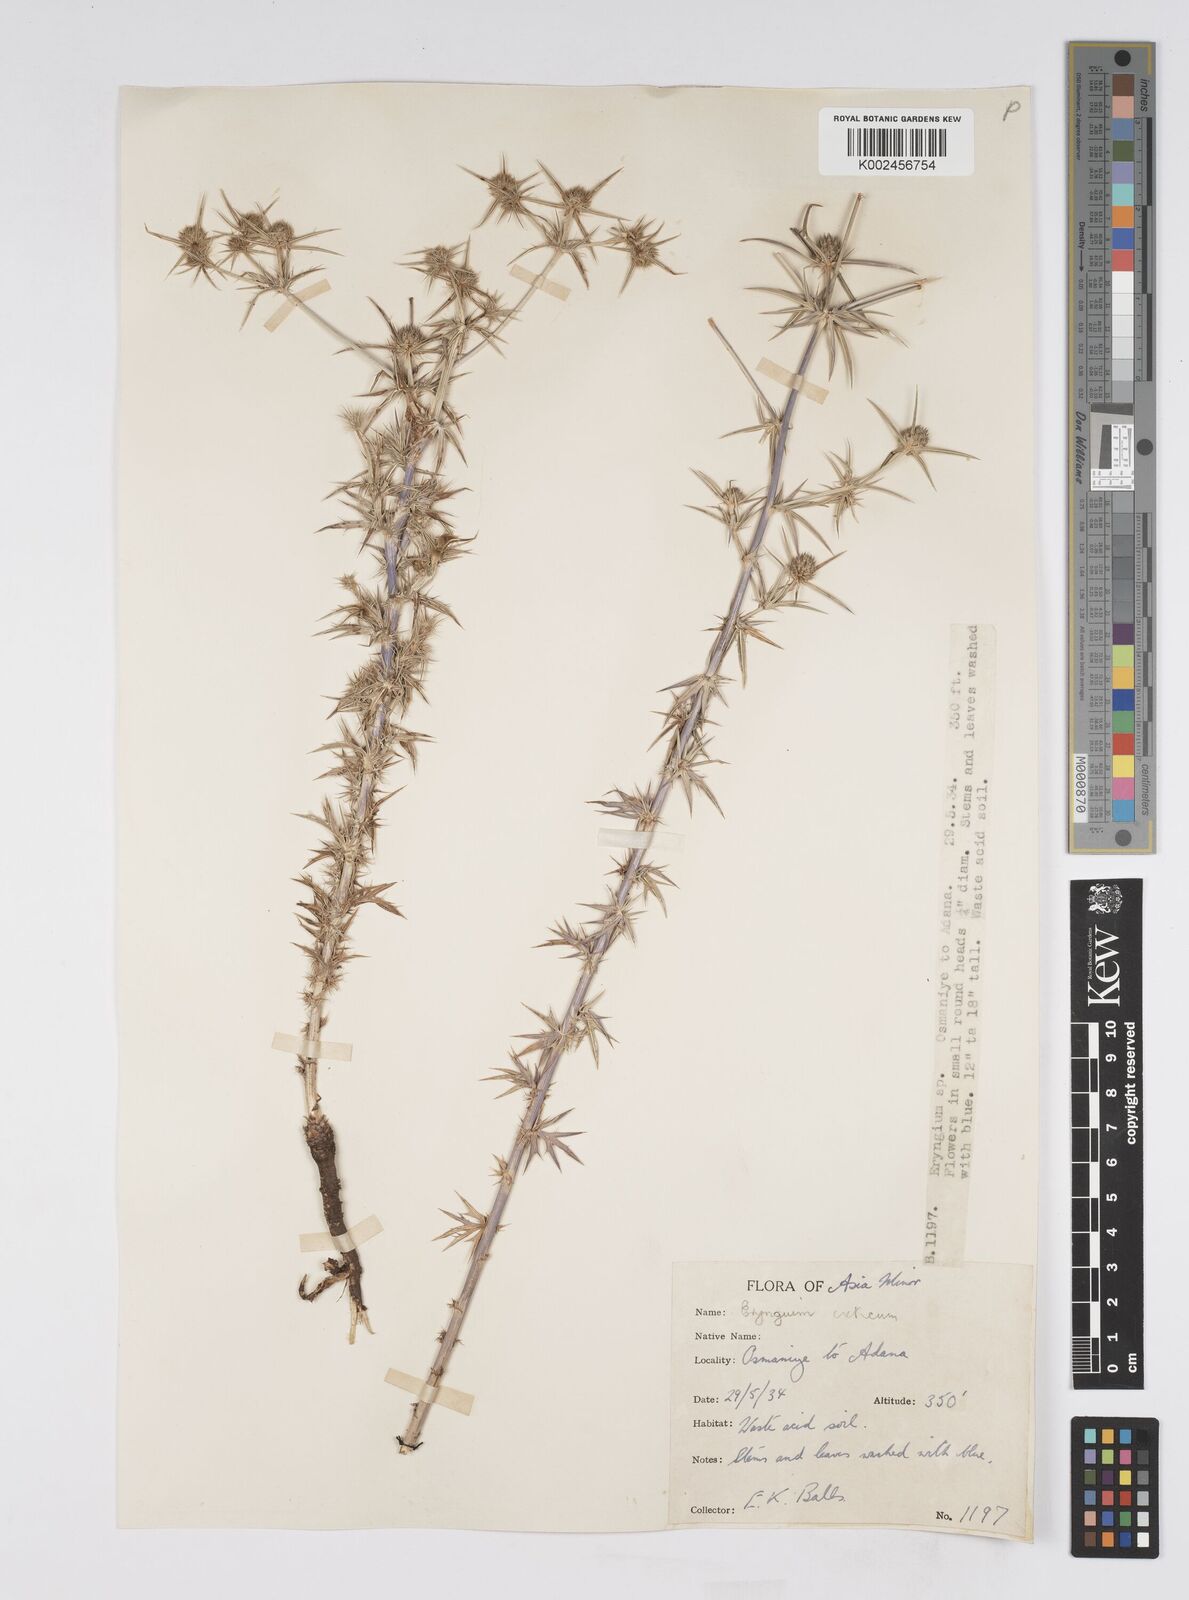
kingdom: Plantae
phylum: Tracheophyta
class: Magnoliopsida
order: Apiales
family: Apiaceae
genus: Eryngium
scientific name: Eryngium creticum
